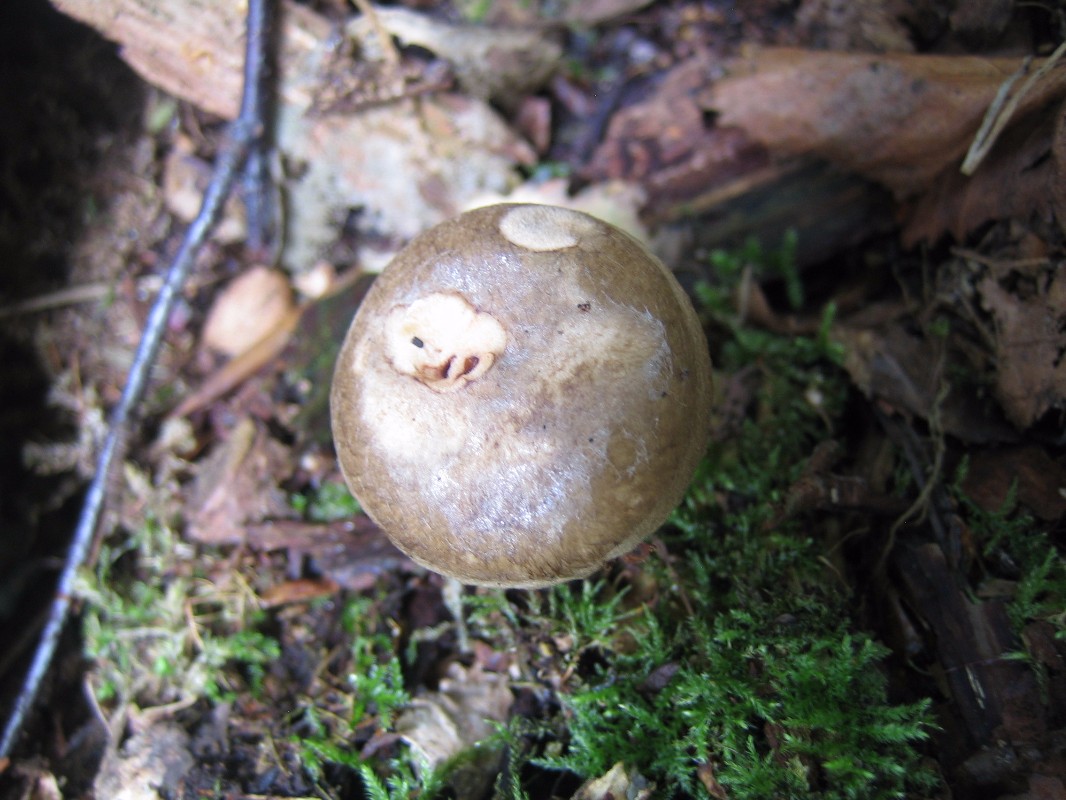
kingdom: Fungi
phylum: Basidiomycota
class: Agaricomycetes
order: Boletales
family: Paxillaceae
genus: Paxillus
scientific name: Paxillus involutus
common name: almindelig netbladhat
